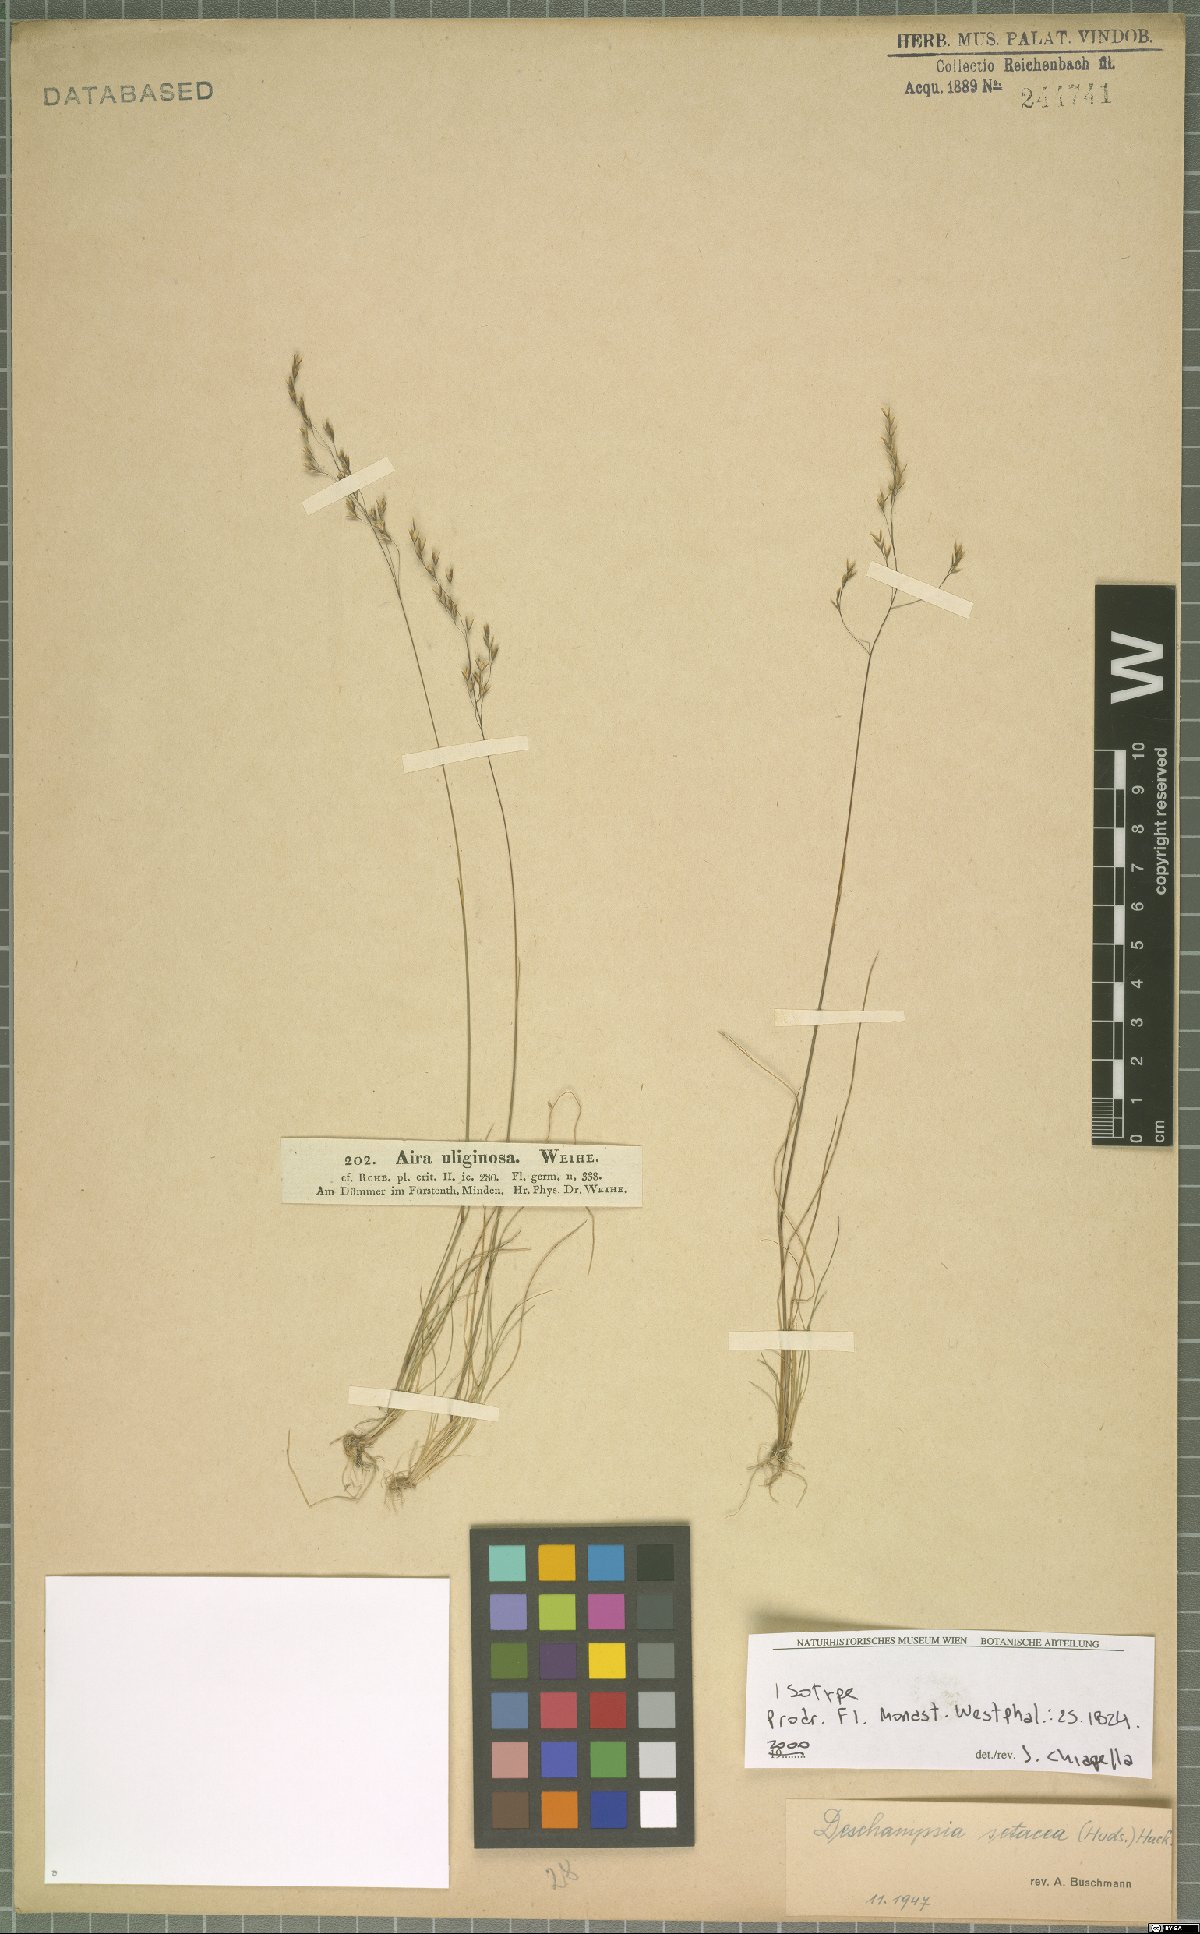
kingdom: Plantae
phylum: Tracheophyta
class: Liliopsida
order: Poales
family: Poaceae
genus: Deschampsia
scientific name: Deschampsia setacea
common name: Bog hair-grass
